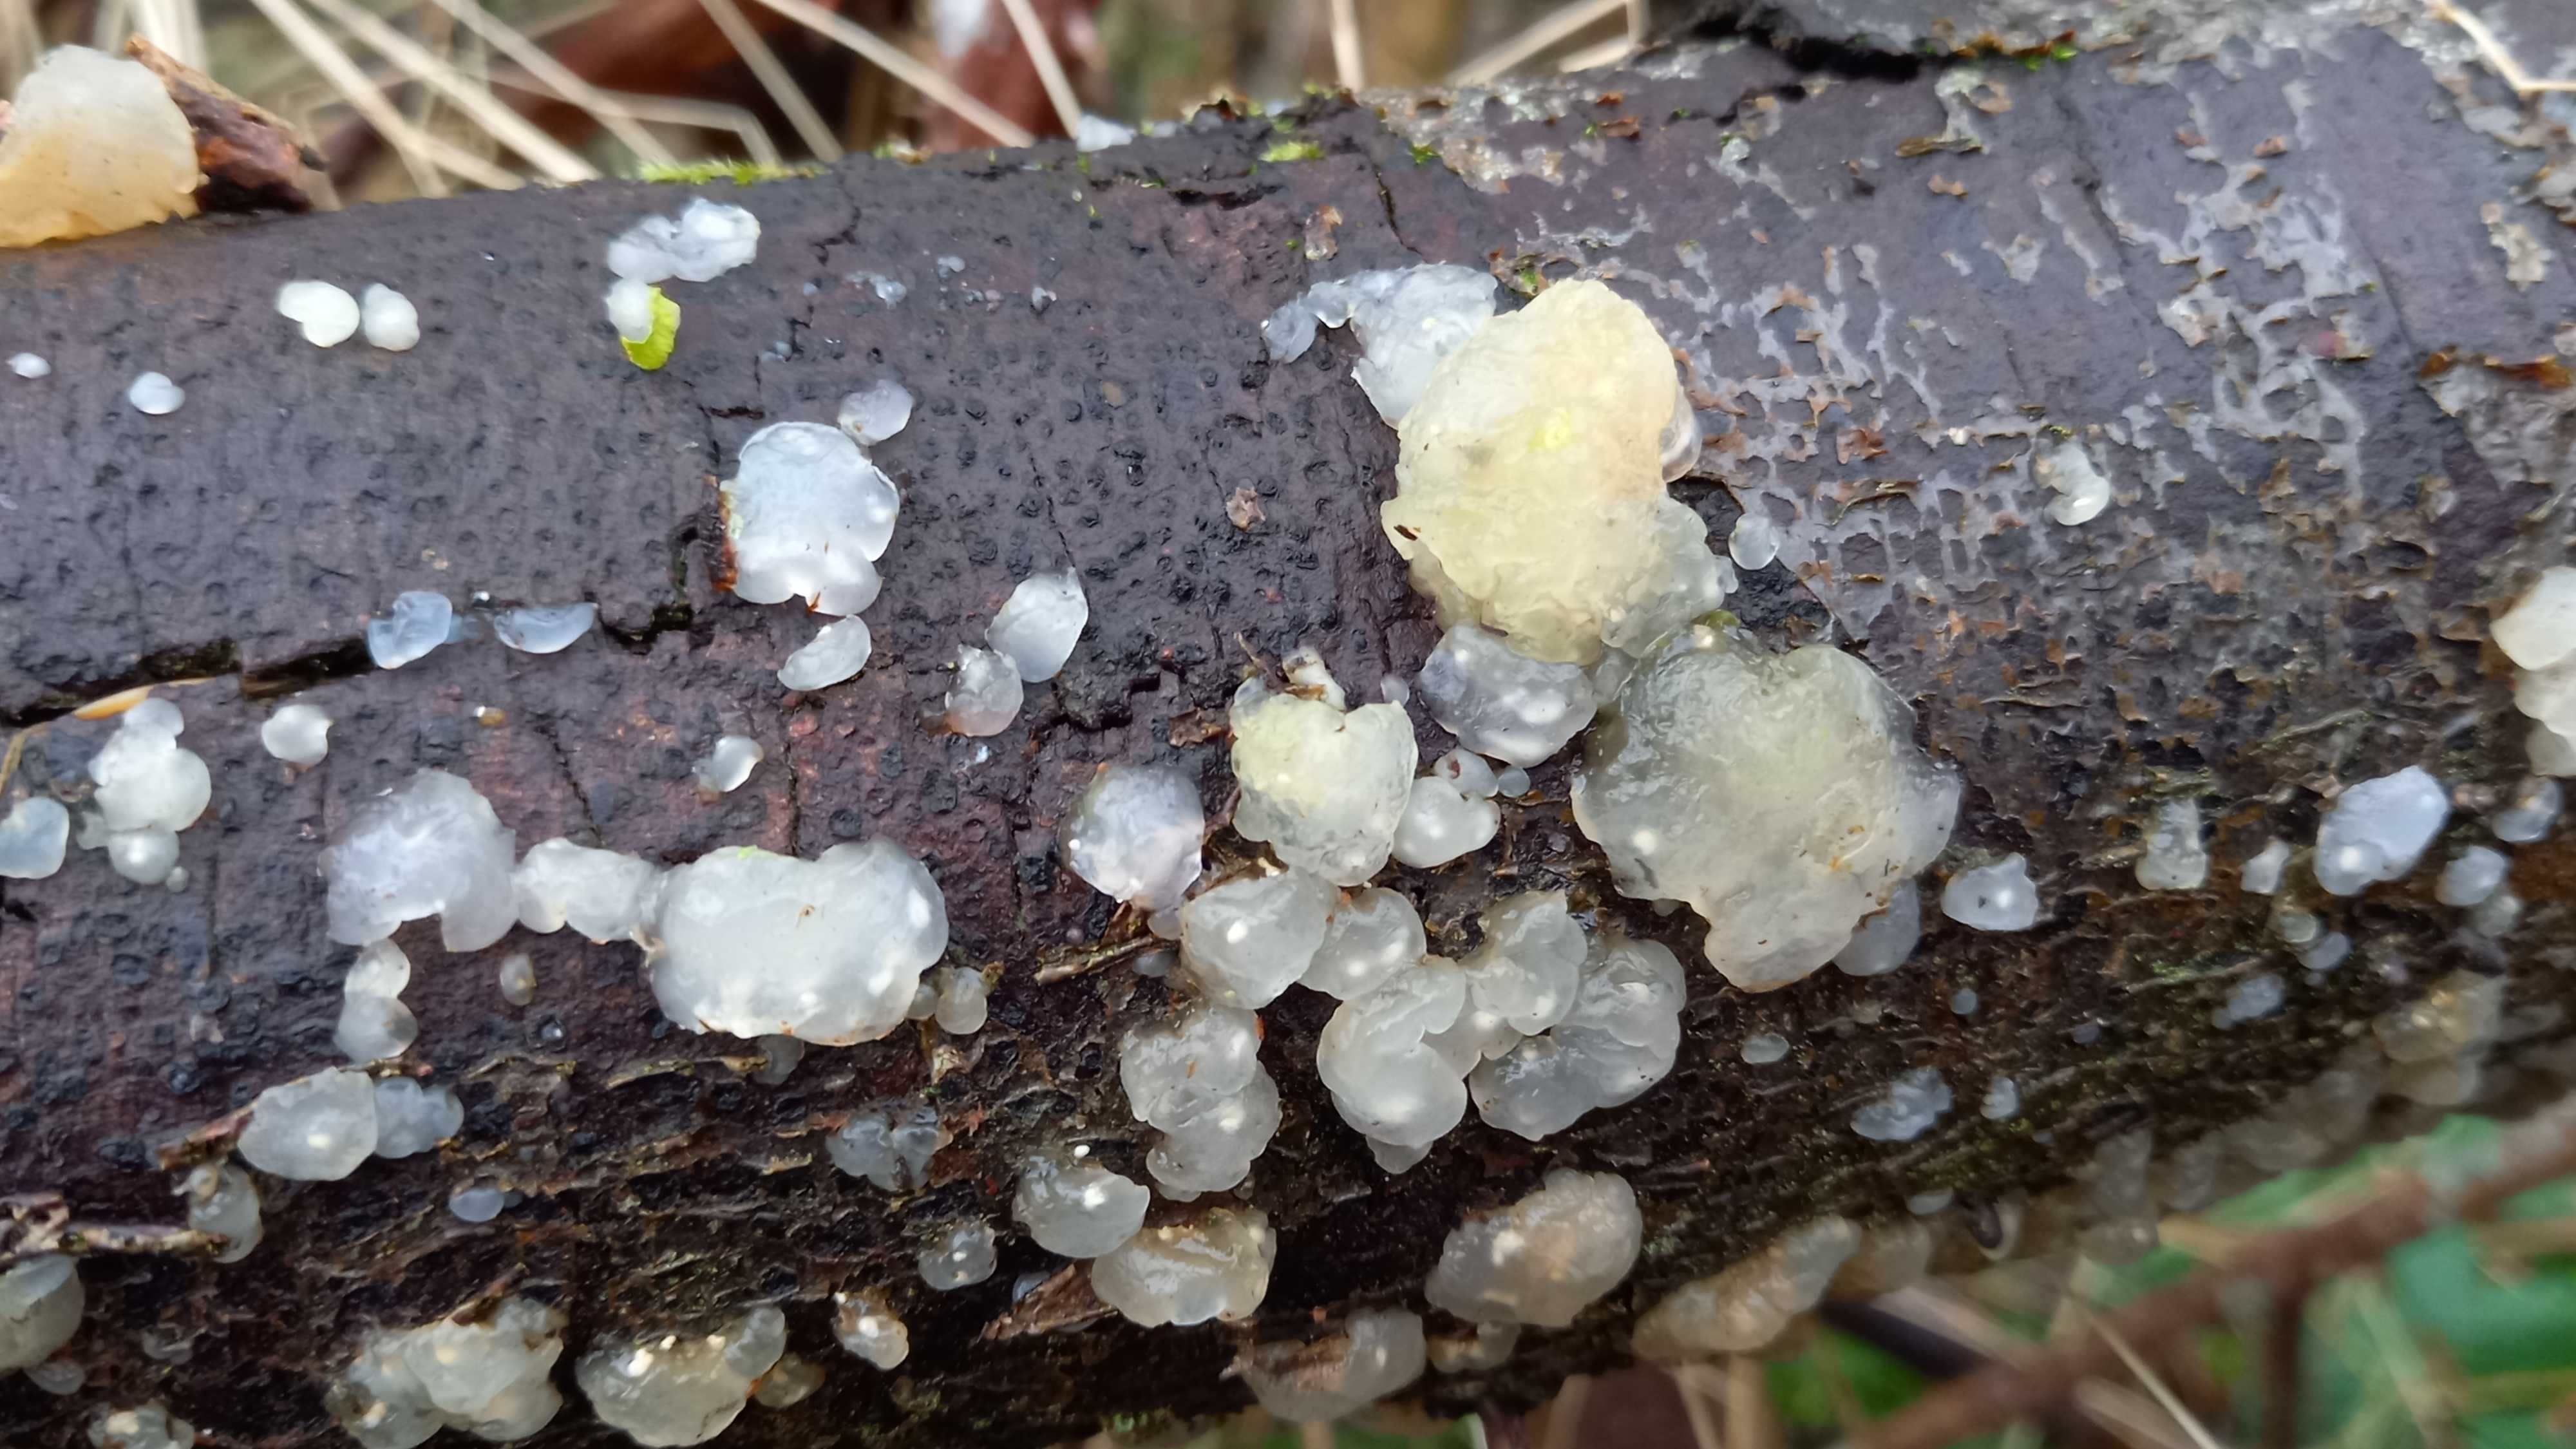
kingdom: Fungi
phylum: Basidiomycota
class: Agaricomycetes
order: Auriculariales
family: Hyaloriaceae
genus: Myxarium
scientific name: Myxarium nucleatum
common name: klar bævretop
